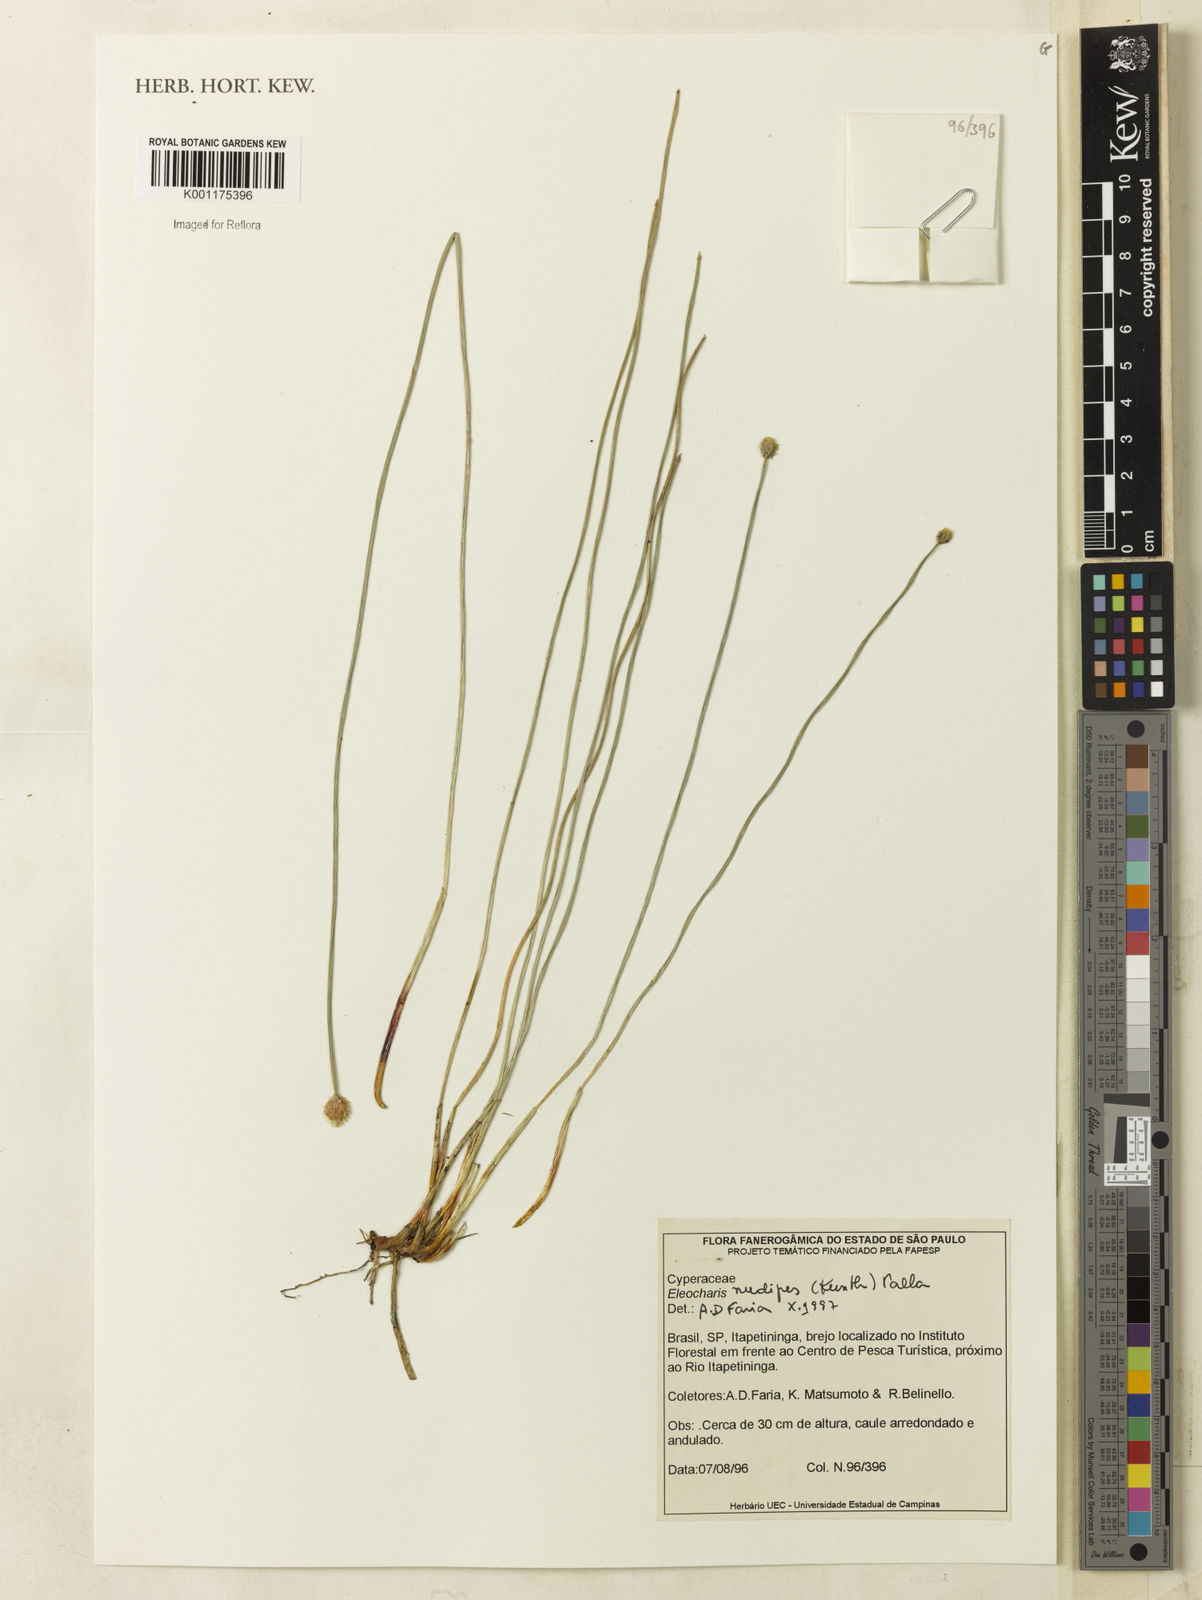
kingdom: Plantae
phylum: Tracheophyta
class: Liliopsida
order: Poales
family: Cyperaceae
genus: Eleocharis
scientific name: Eleocharis nudipes
